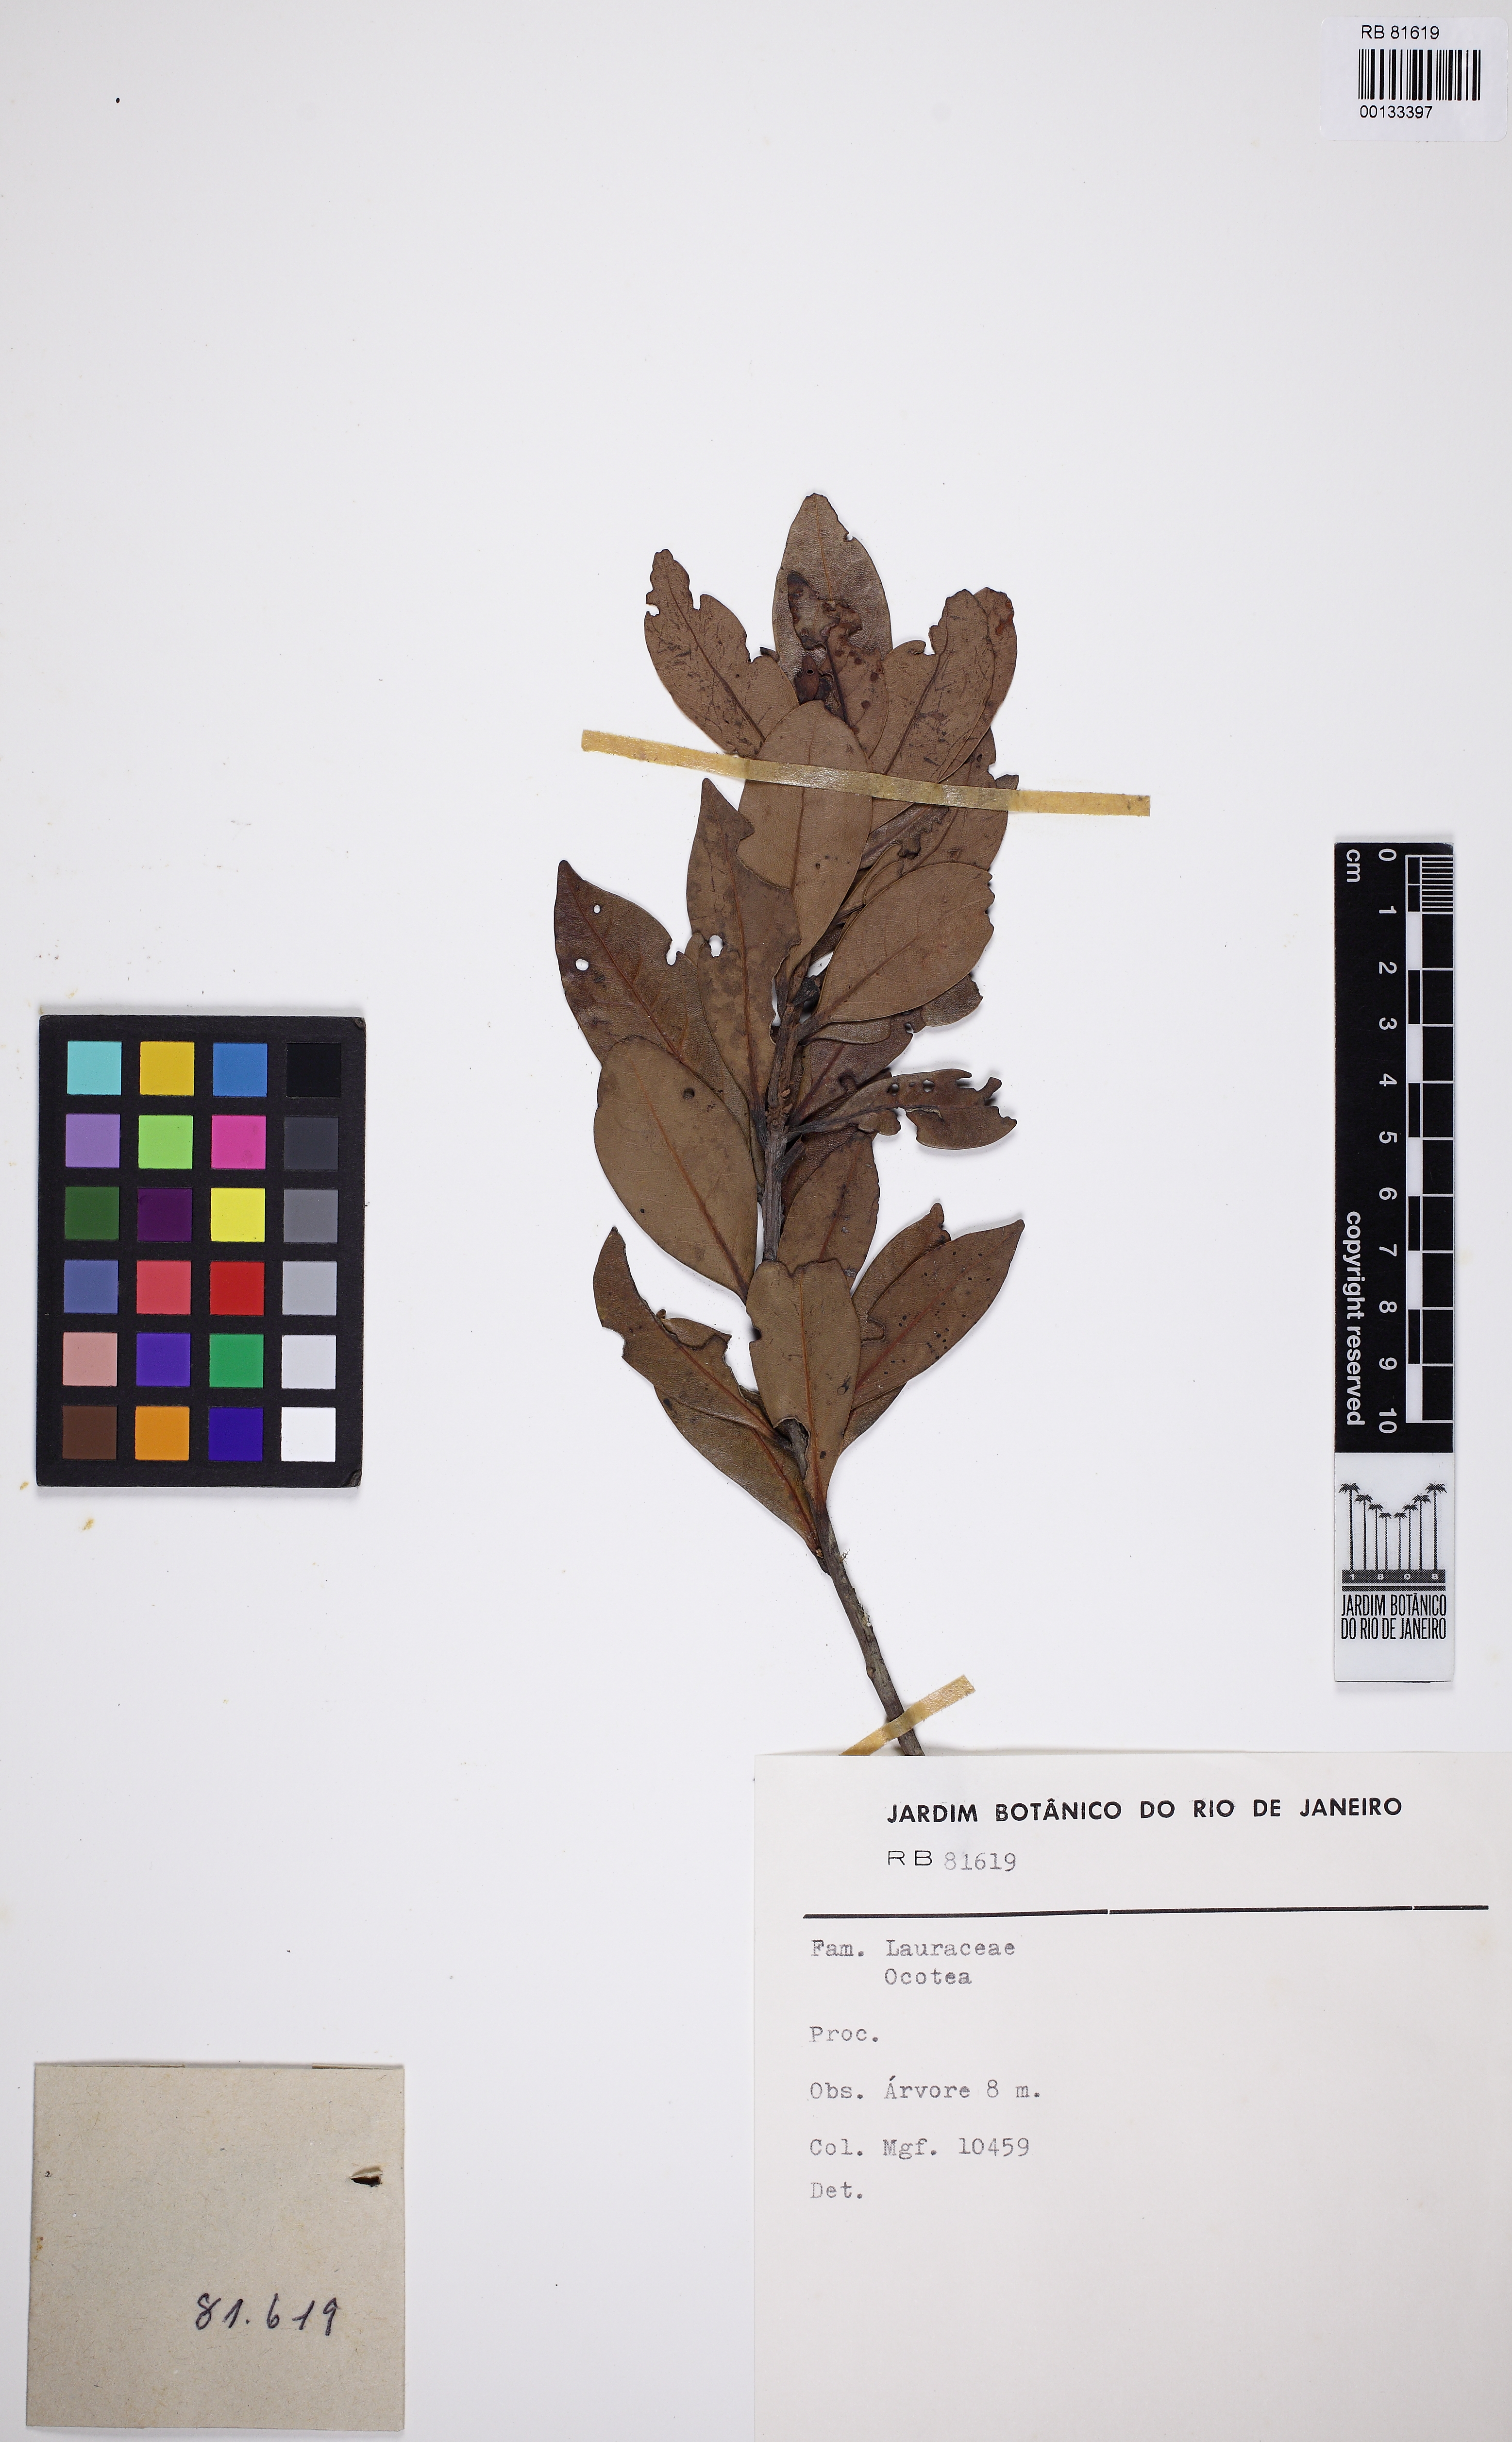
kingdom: Plantae
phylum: Tracheophyta
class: Magnoliopsida
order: Laurales
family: Lauraceae
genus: Ocotea
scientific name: Ocotea
